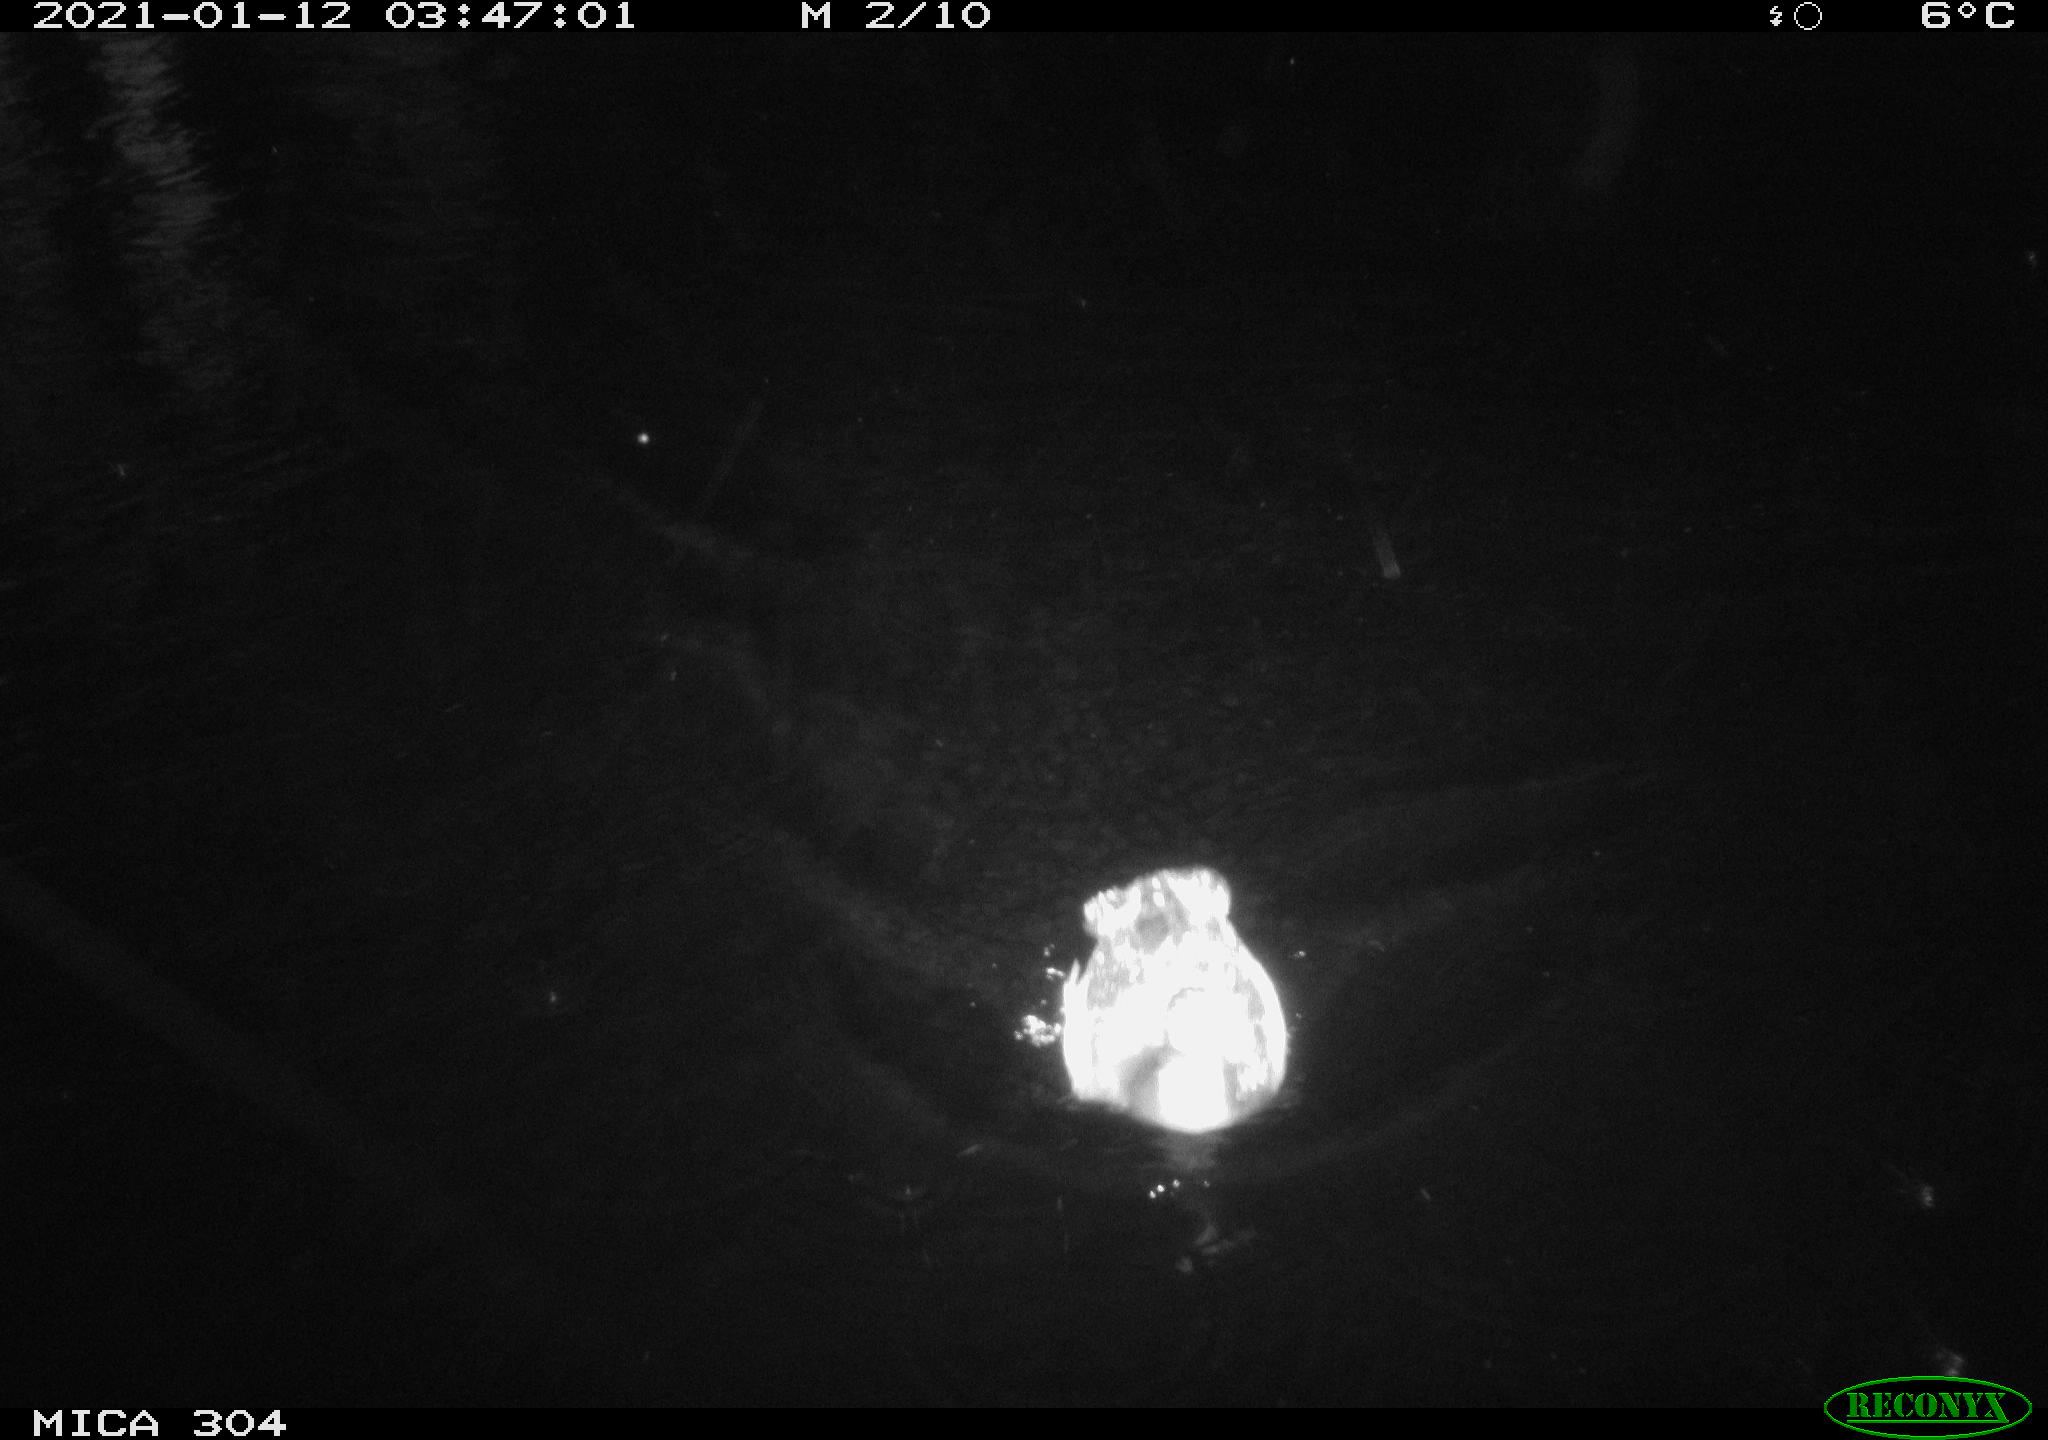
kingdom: Animalia
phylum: Chordata
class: Aves
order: Gruiformes
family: Rallidae
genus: Gallinula
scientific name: Gallinula chloropus
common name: Common moorhen
